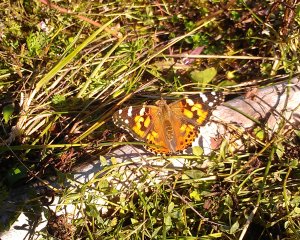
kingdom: Animalia
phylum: Arthropoda
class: Insecta
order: Lepidoptera
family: Nymphalidae
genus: Vanessa
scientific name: Vanessa cardui
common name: Painted Lady
